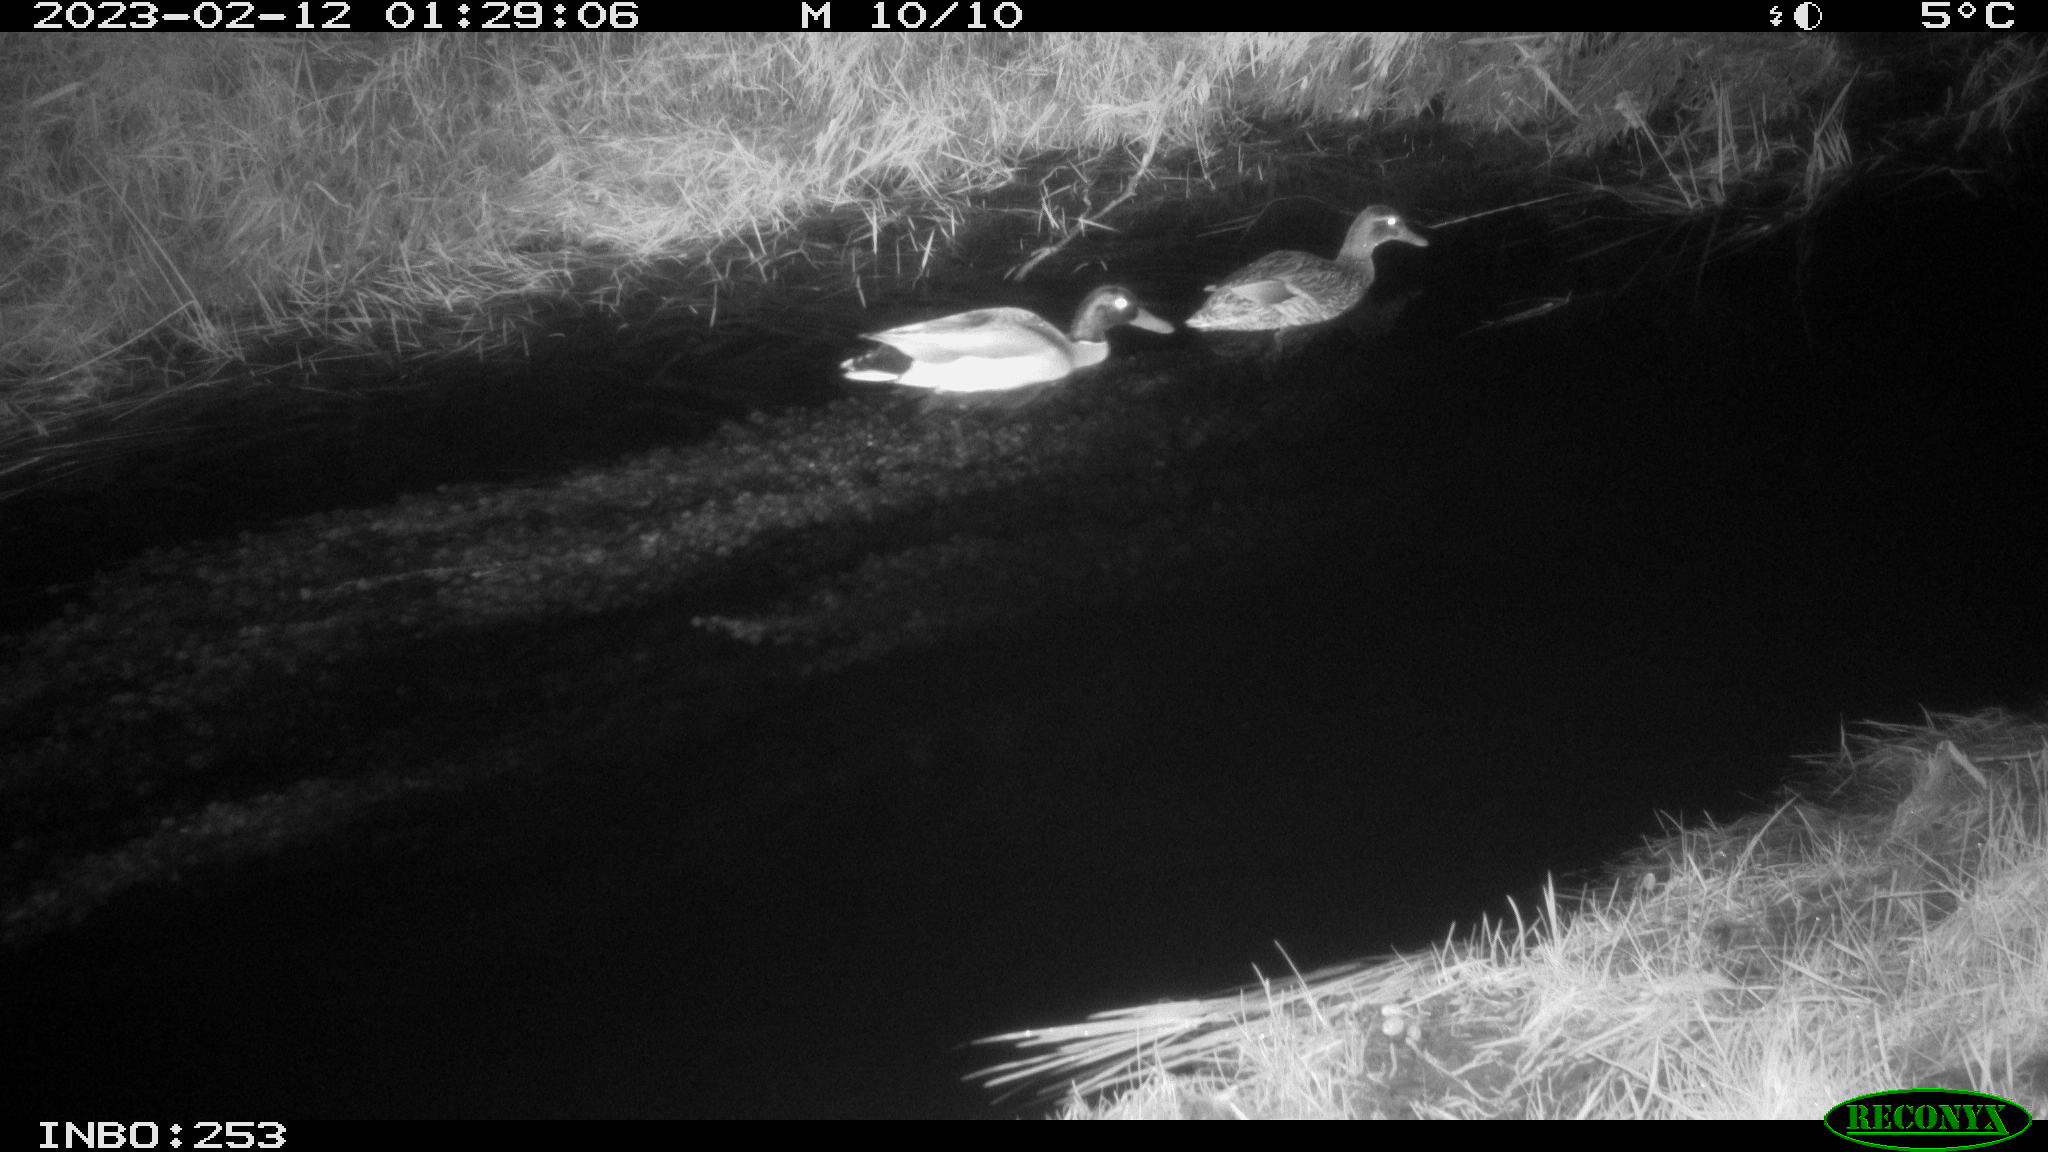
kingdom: Animalia
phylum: Chordata
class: Aves
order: Anseriformes
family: Anatidae
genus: Anas
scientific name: Anas
